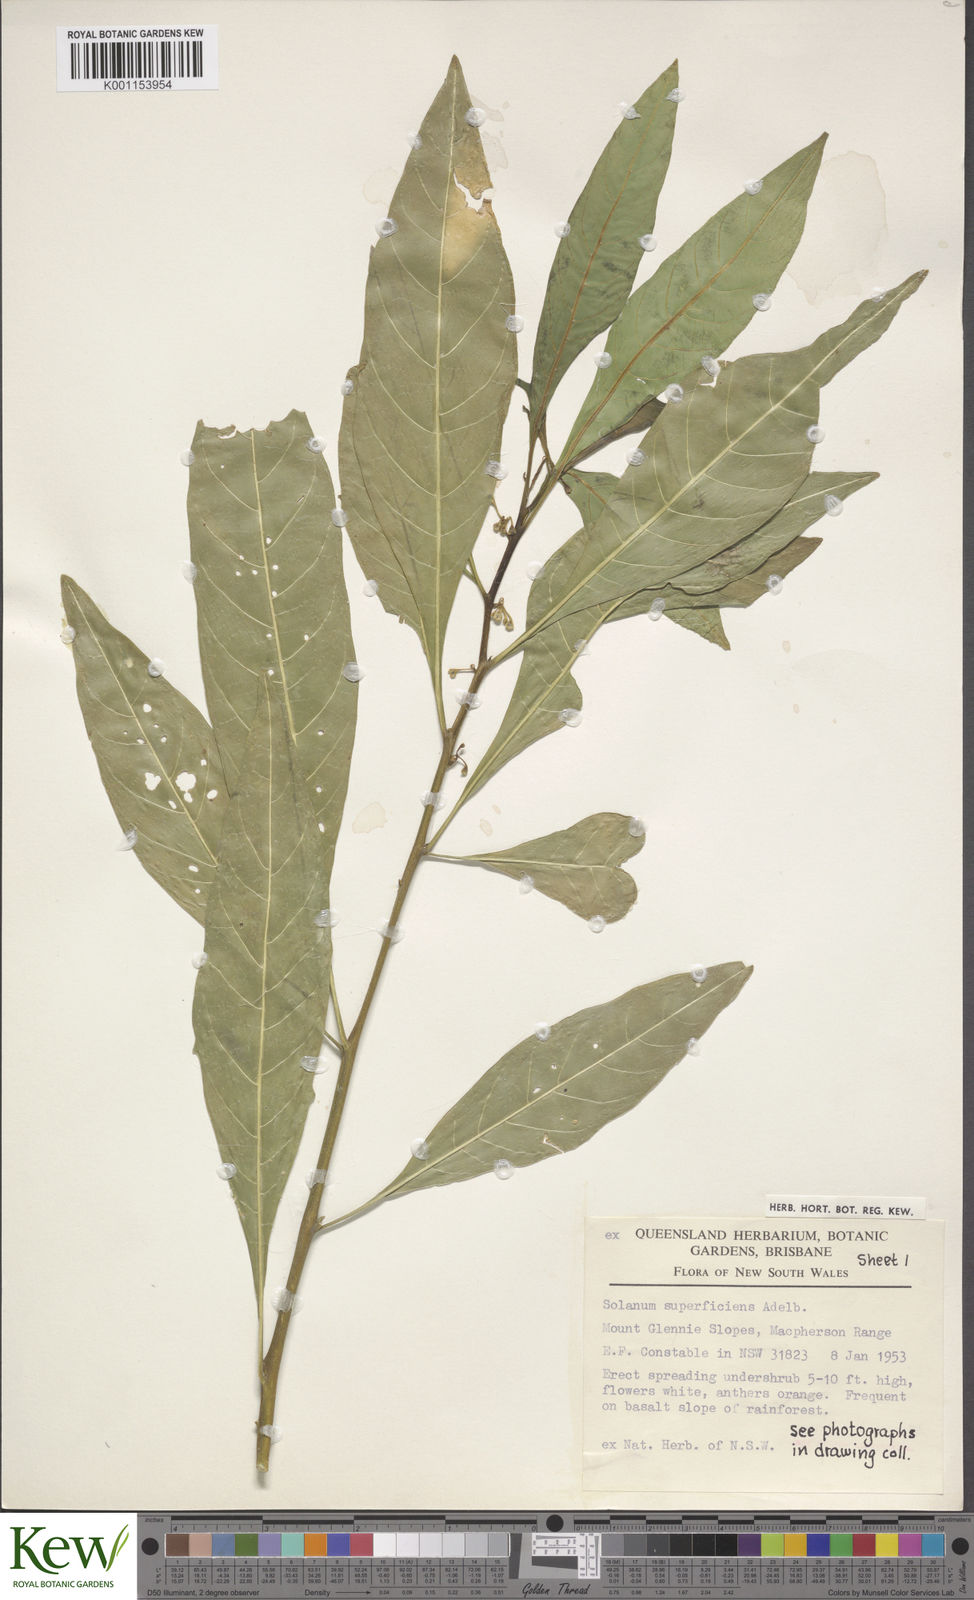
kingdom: Plantae
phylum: Tracheophyta
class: Magnoliopsida
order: Solanales
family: Solanaceae
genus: Solanum
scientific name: Solanum spirale
